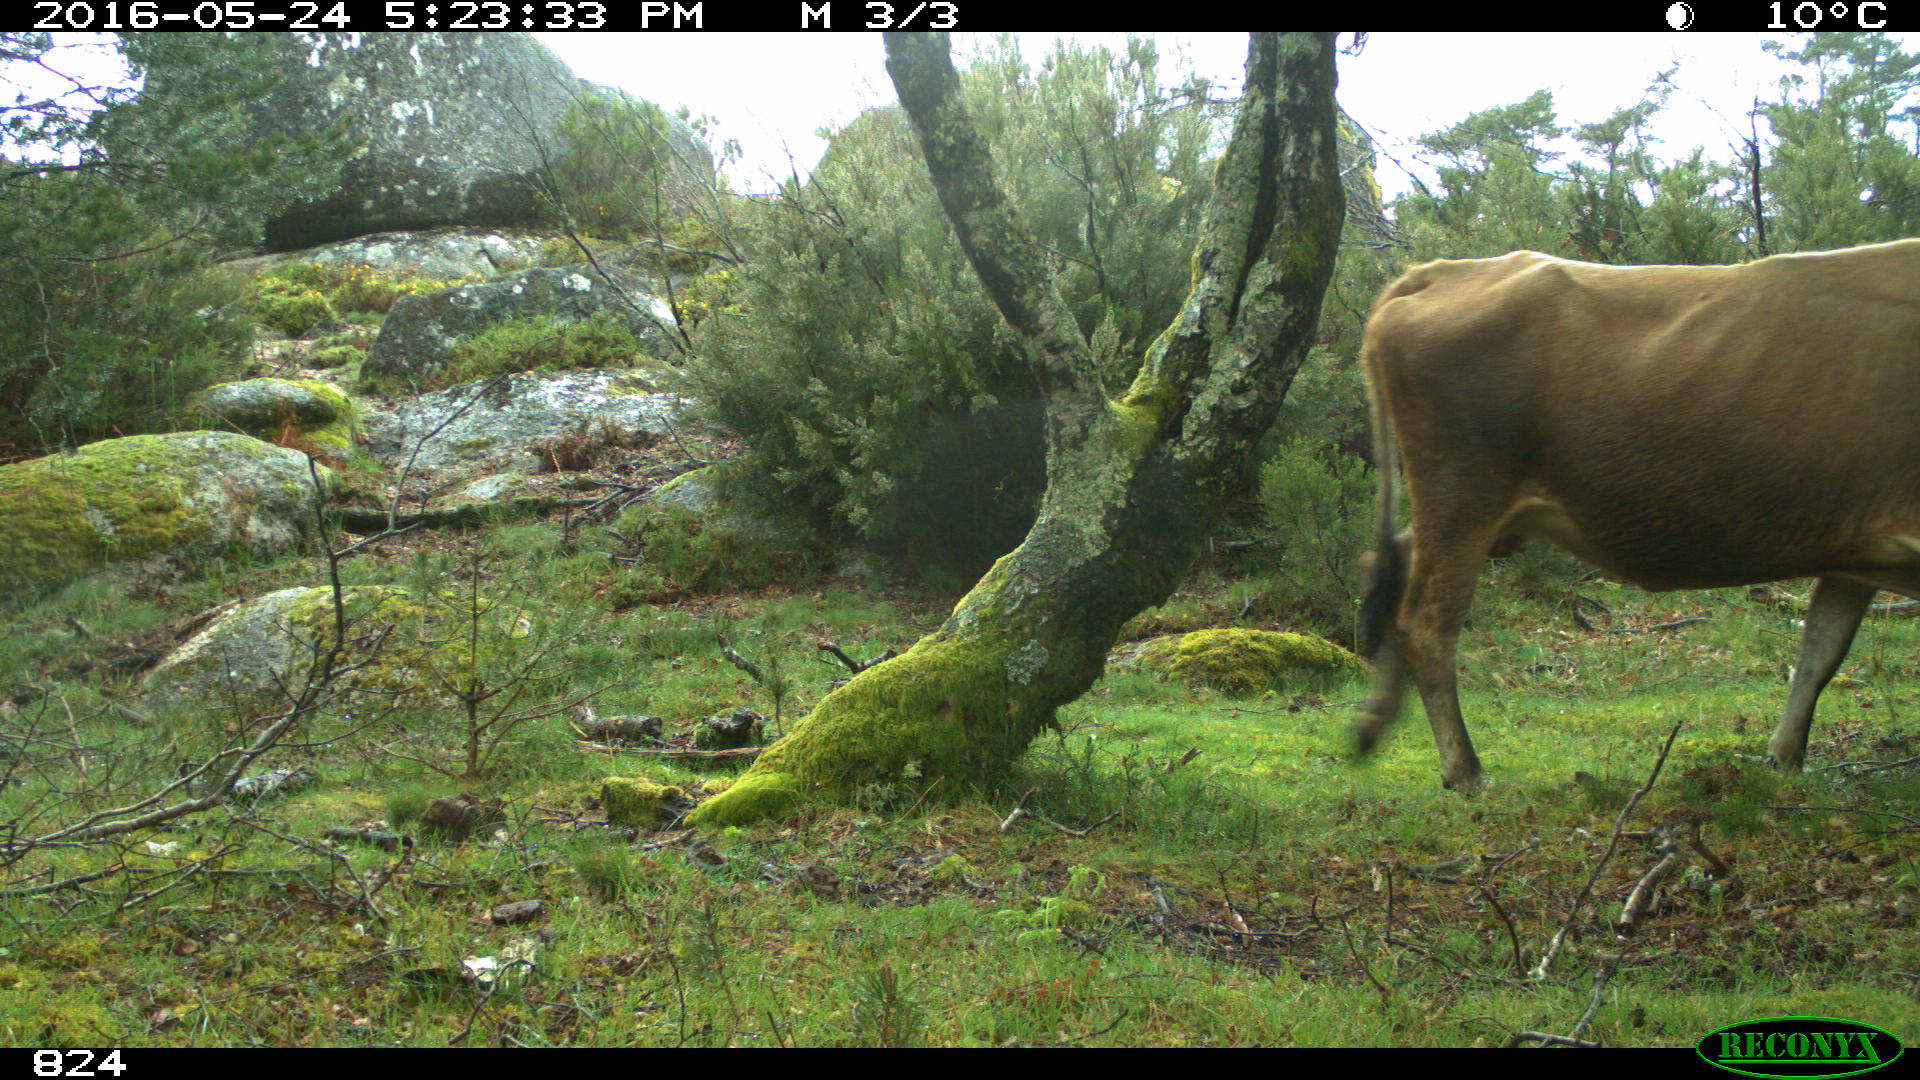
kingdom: Animalia
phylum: Chordata
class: Mammalia
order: Artiodactyla
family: Bovidae
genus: Bos
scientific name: Bos taurus
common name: Domesticated cattle
